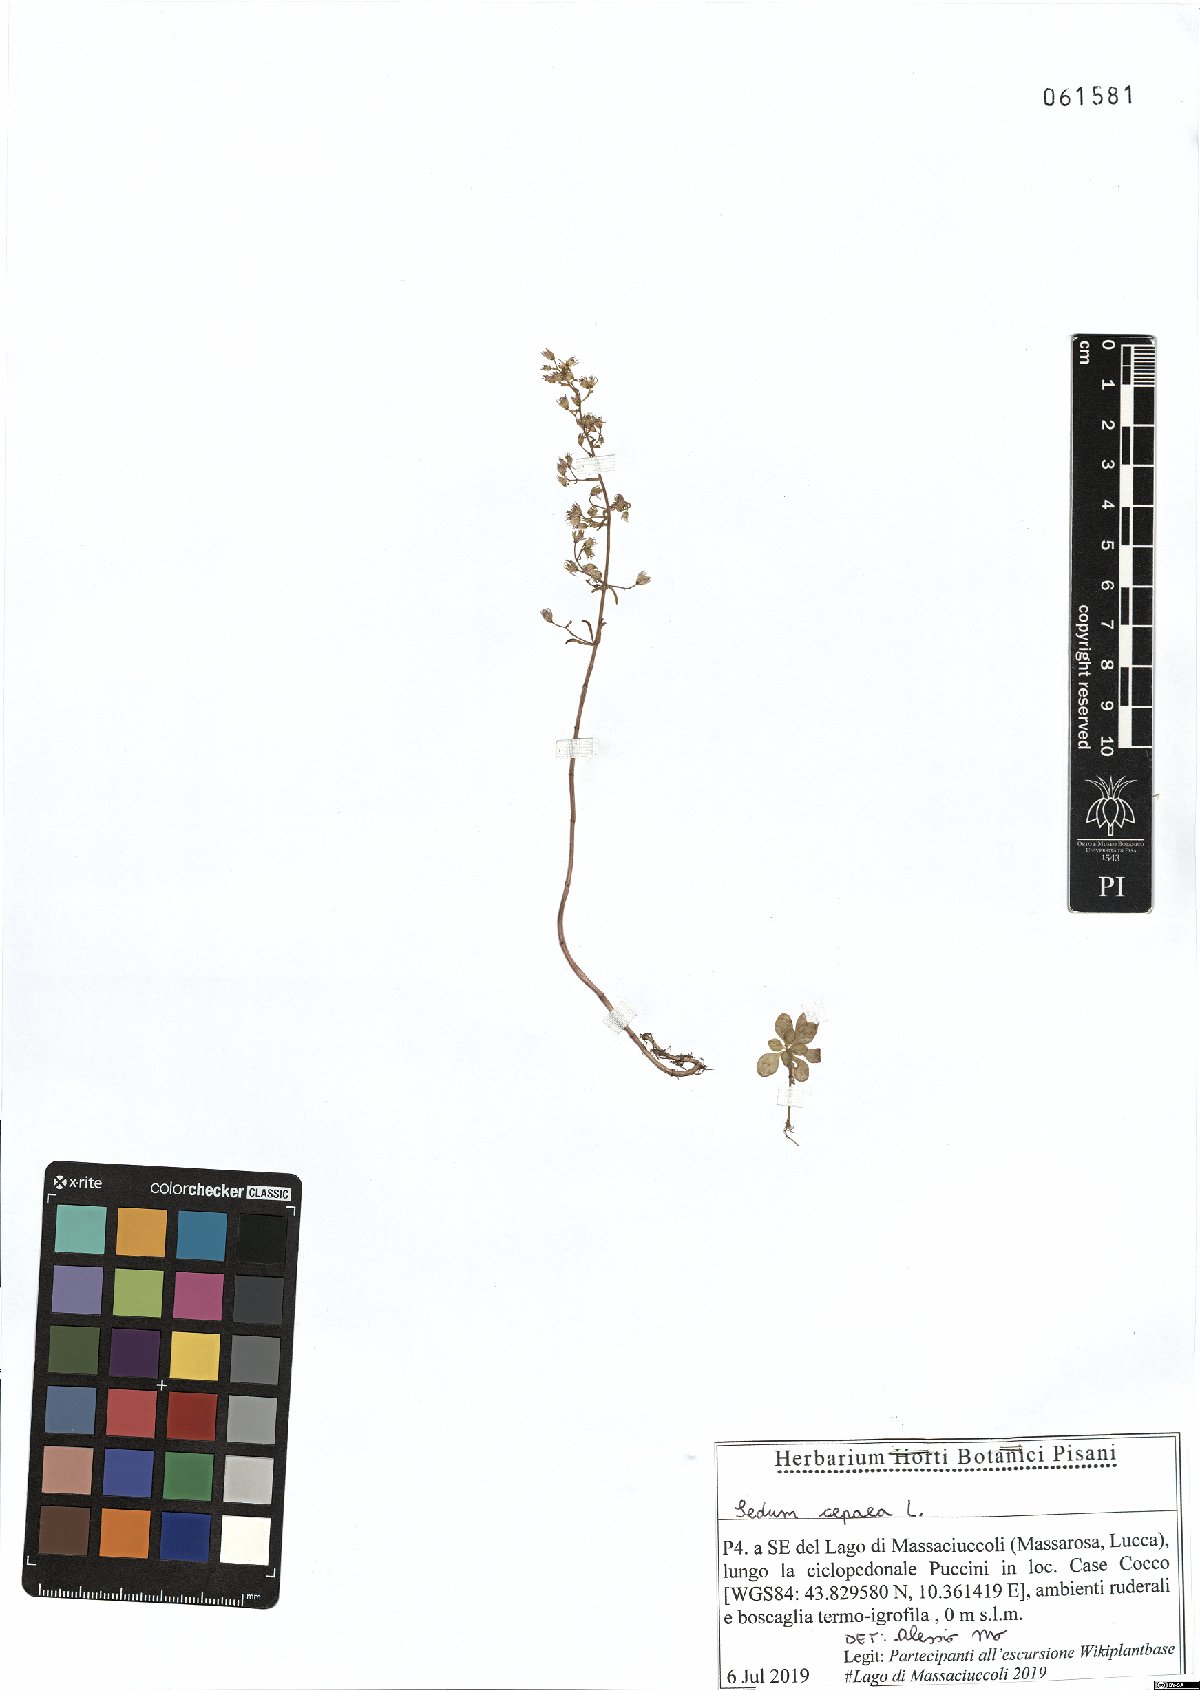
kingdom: Plantae
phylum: Tracheophyta
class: Magnoliopsida
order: Saxifragales
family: Crassulaceae
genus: Sedum
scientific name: Sedum cepaea
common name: Pink stonecrop
